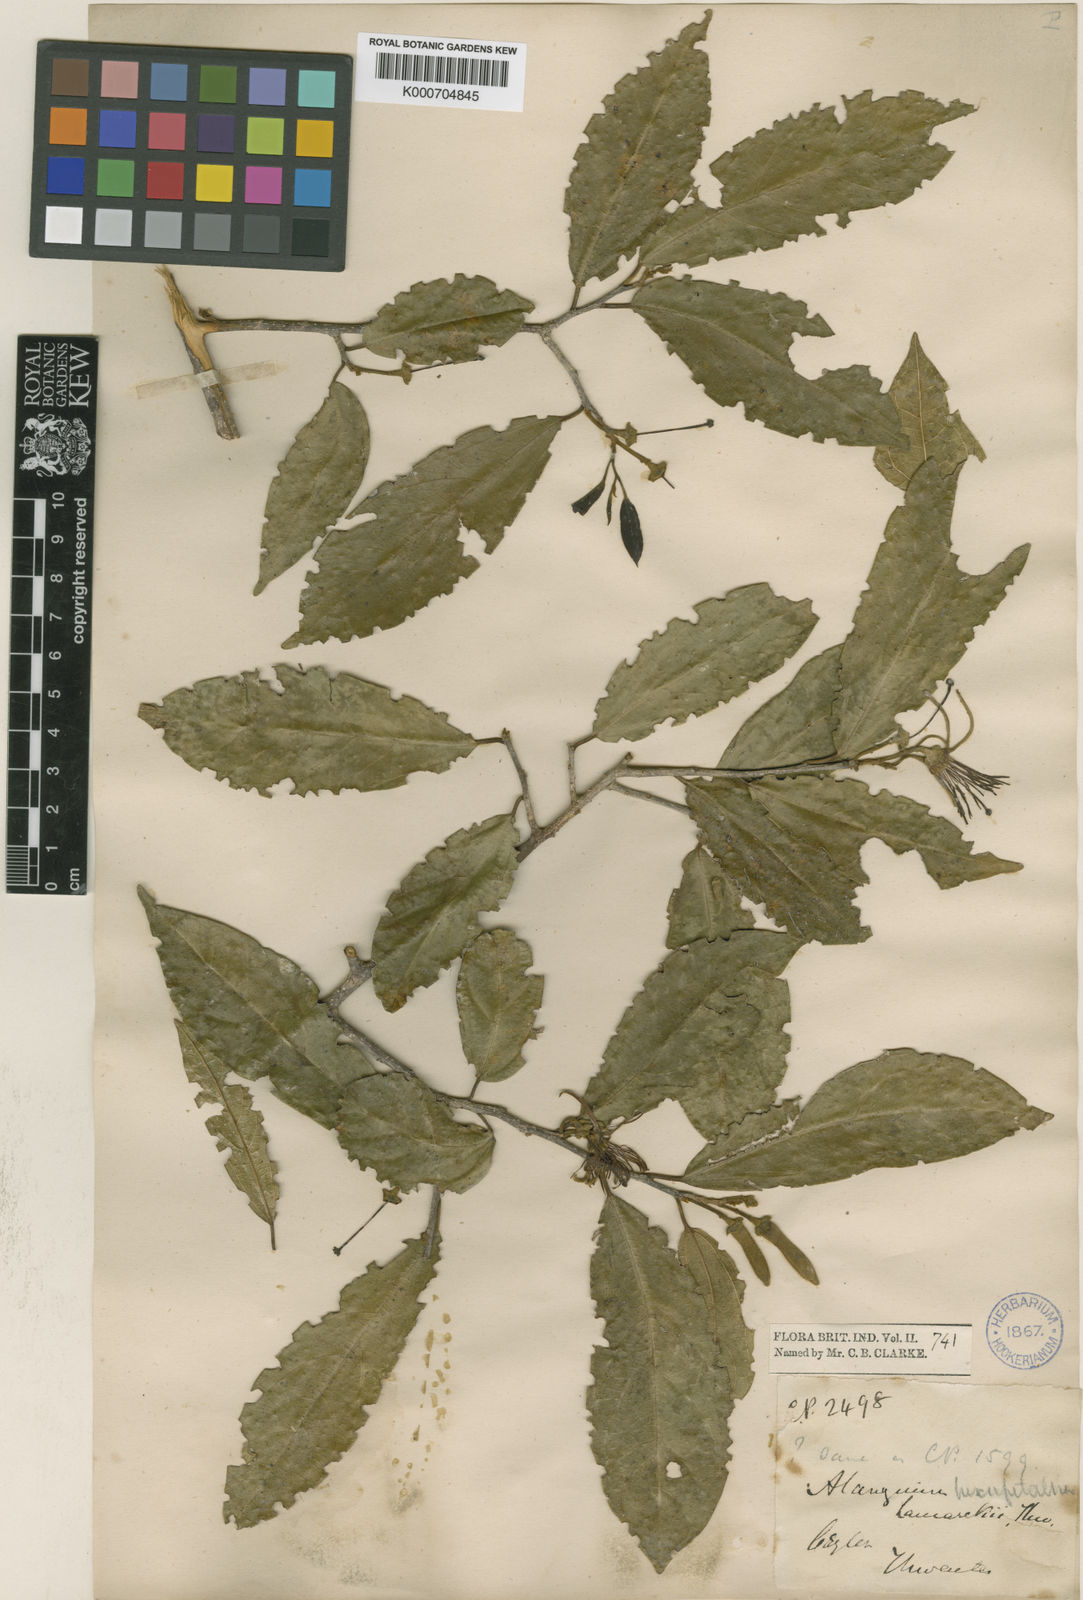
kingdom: Plantae
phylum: Tracheophyta
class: Magnoliopsida
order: Cornales
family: Cornaceae
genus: Alangium
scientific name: Alangium salviifolium
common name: Sage-leaf alangium
